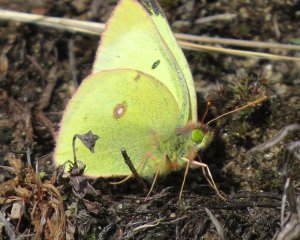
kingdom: Animalia
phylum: Arthropoda
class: Insecta
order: Lepidoptera
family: Pieridae
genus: Colias
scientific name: Colias interior
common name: Pink-edged Sulphur
